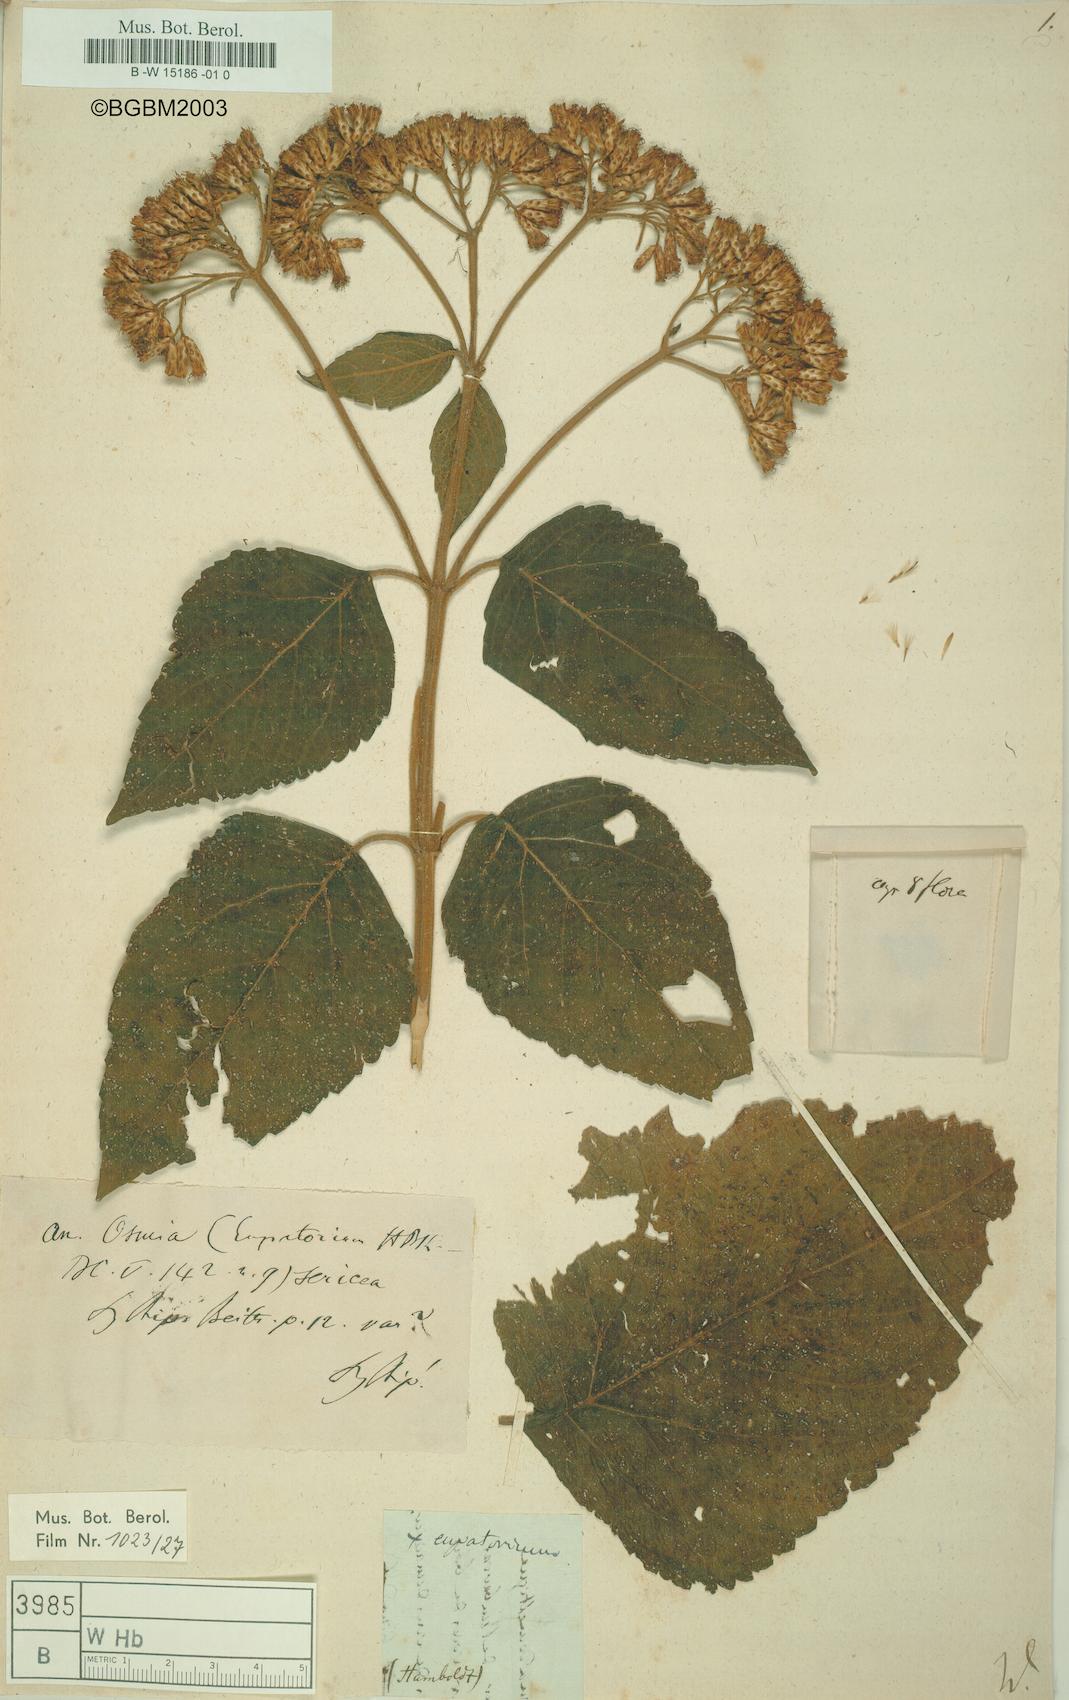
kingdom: Plantae
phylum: Tracheophyta
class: Magnoliopsida
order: Asterales
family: Asteraceae
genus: Eupatorium
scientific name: Eupatorium
